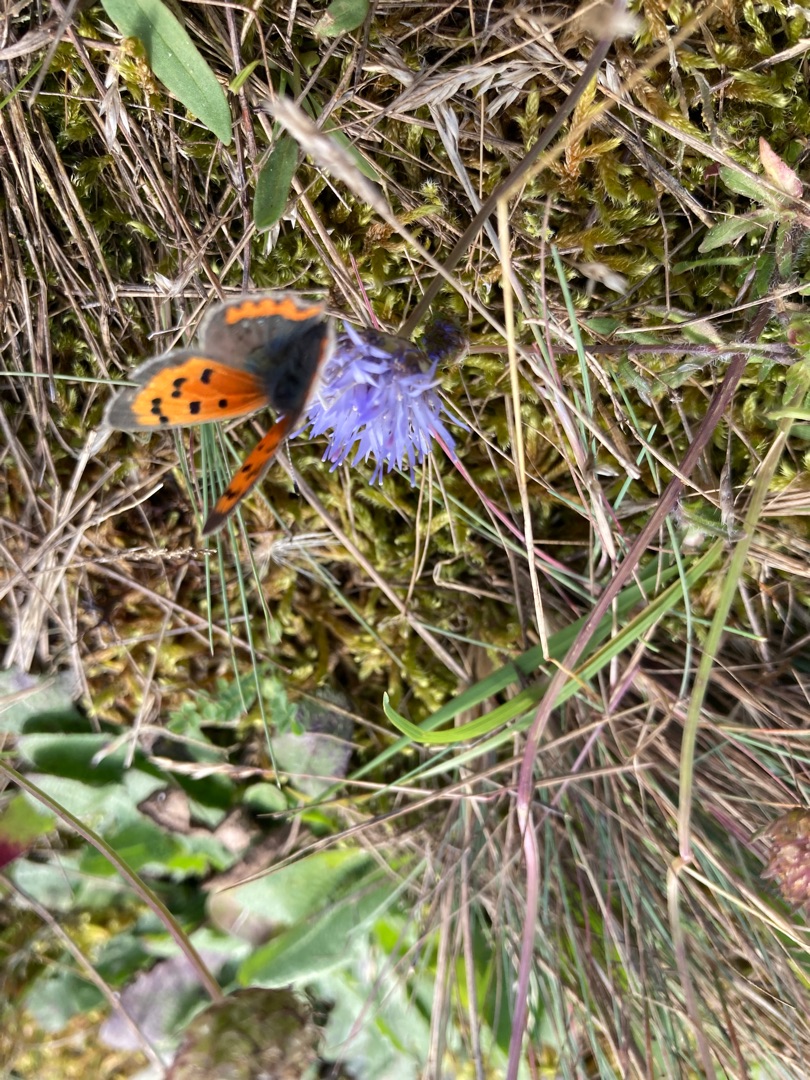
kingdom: Plantae
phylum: Tracheophyta
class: Magnoliopsida
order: Asterales
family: Campanulaceae
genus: Jasione
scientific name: Jasione montana
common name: Blåmunke
